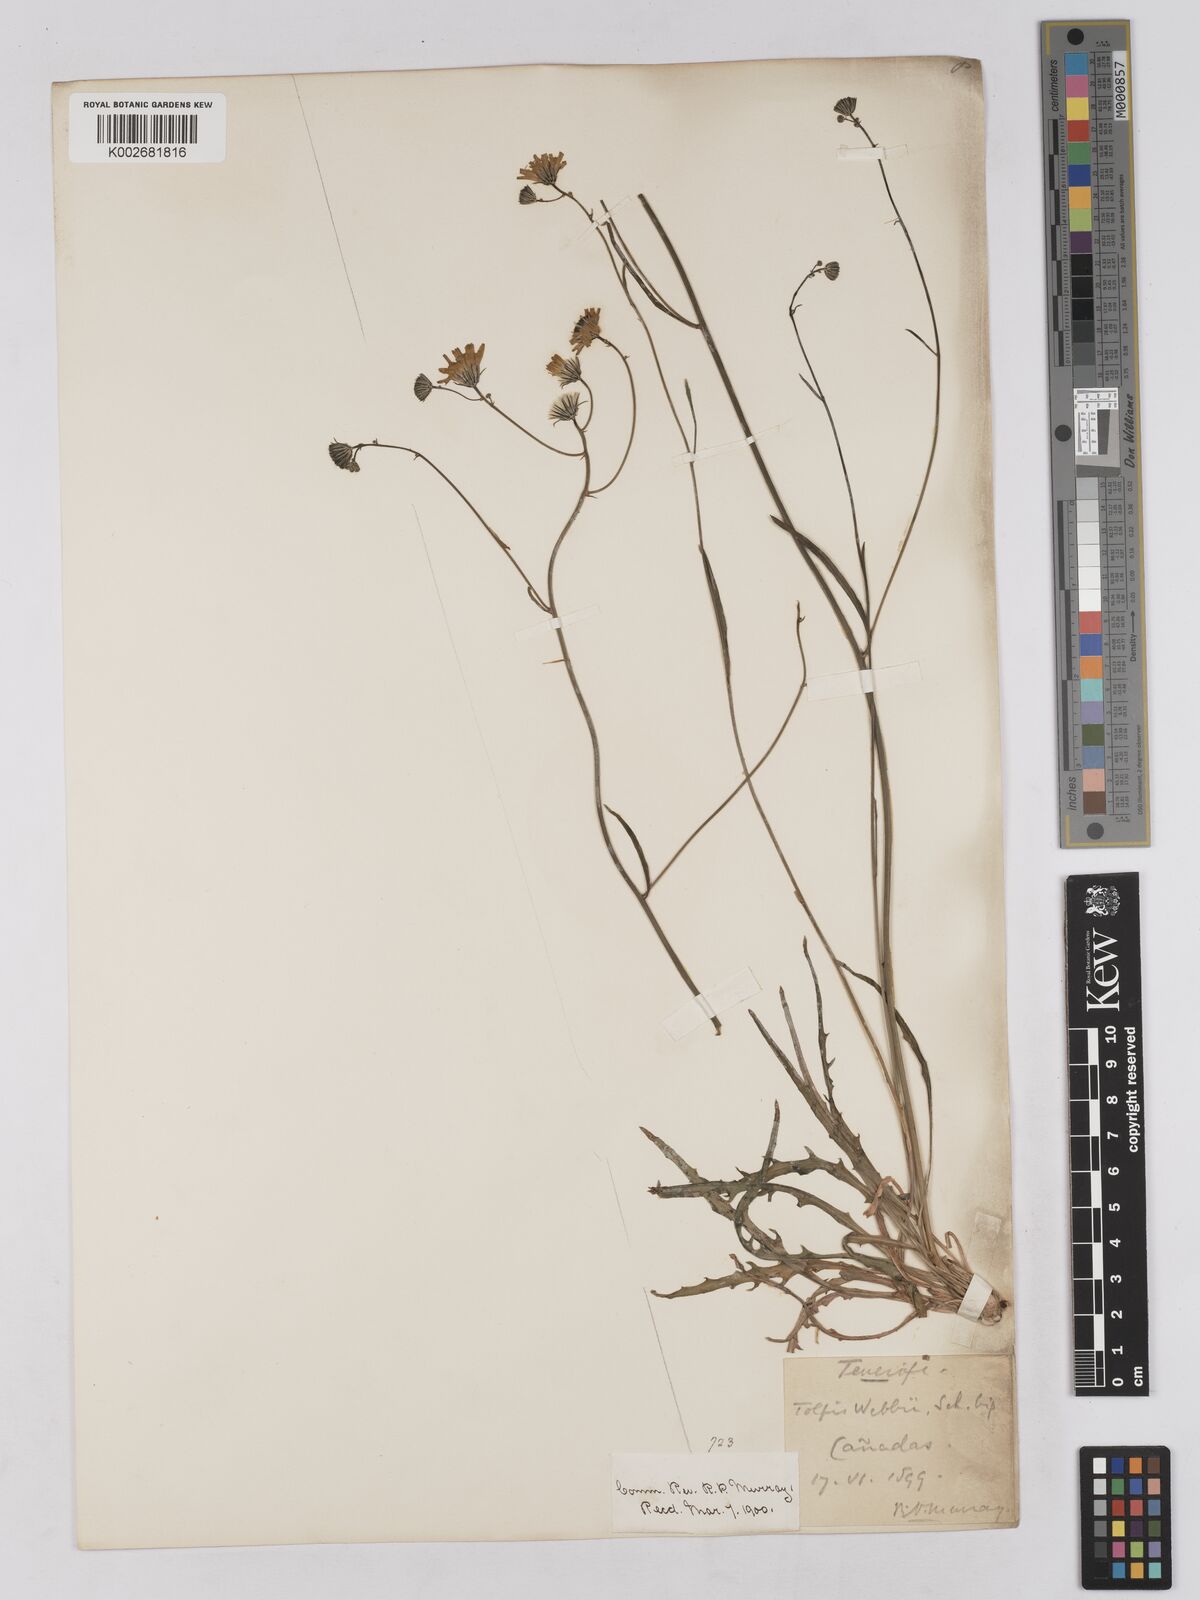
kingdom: Plantae
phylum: Tracheophyta
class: Magnoliopsida
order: Asterales
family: Asteraceae
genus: Tolpis
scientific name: Tolpis webbii
